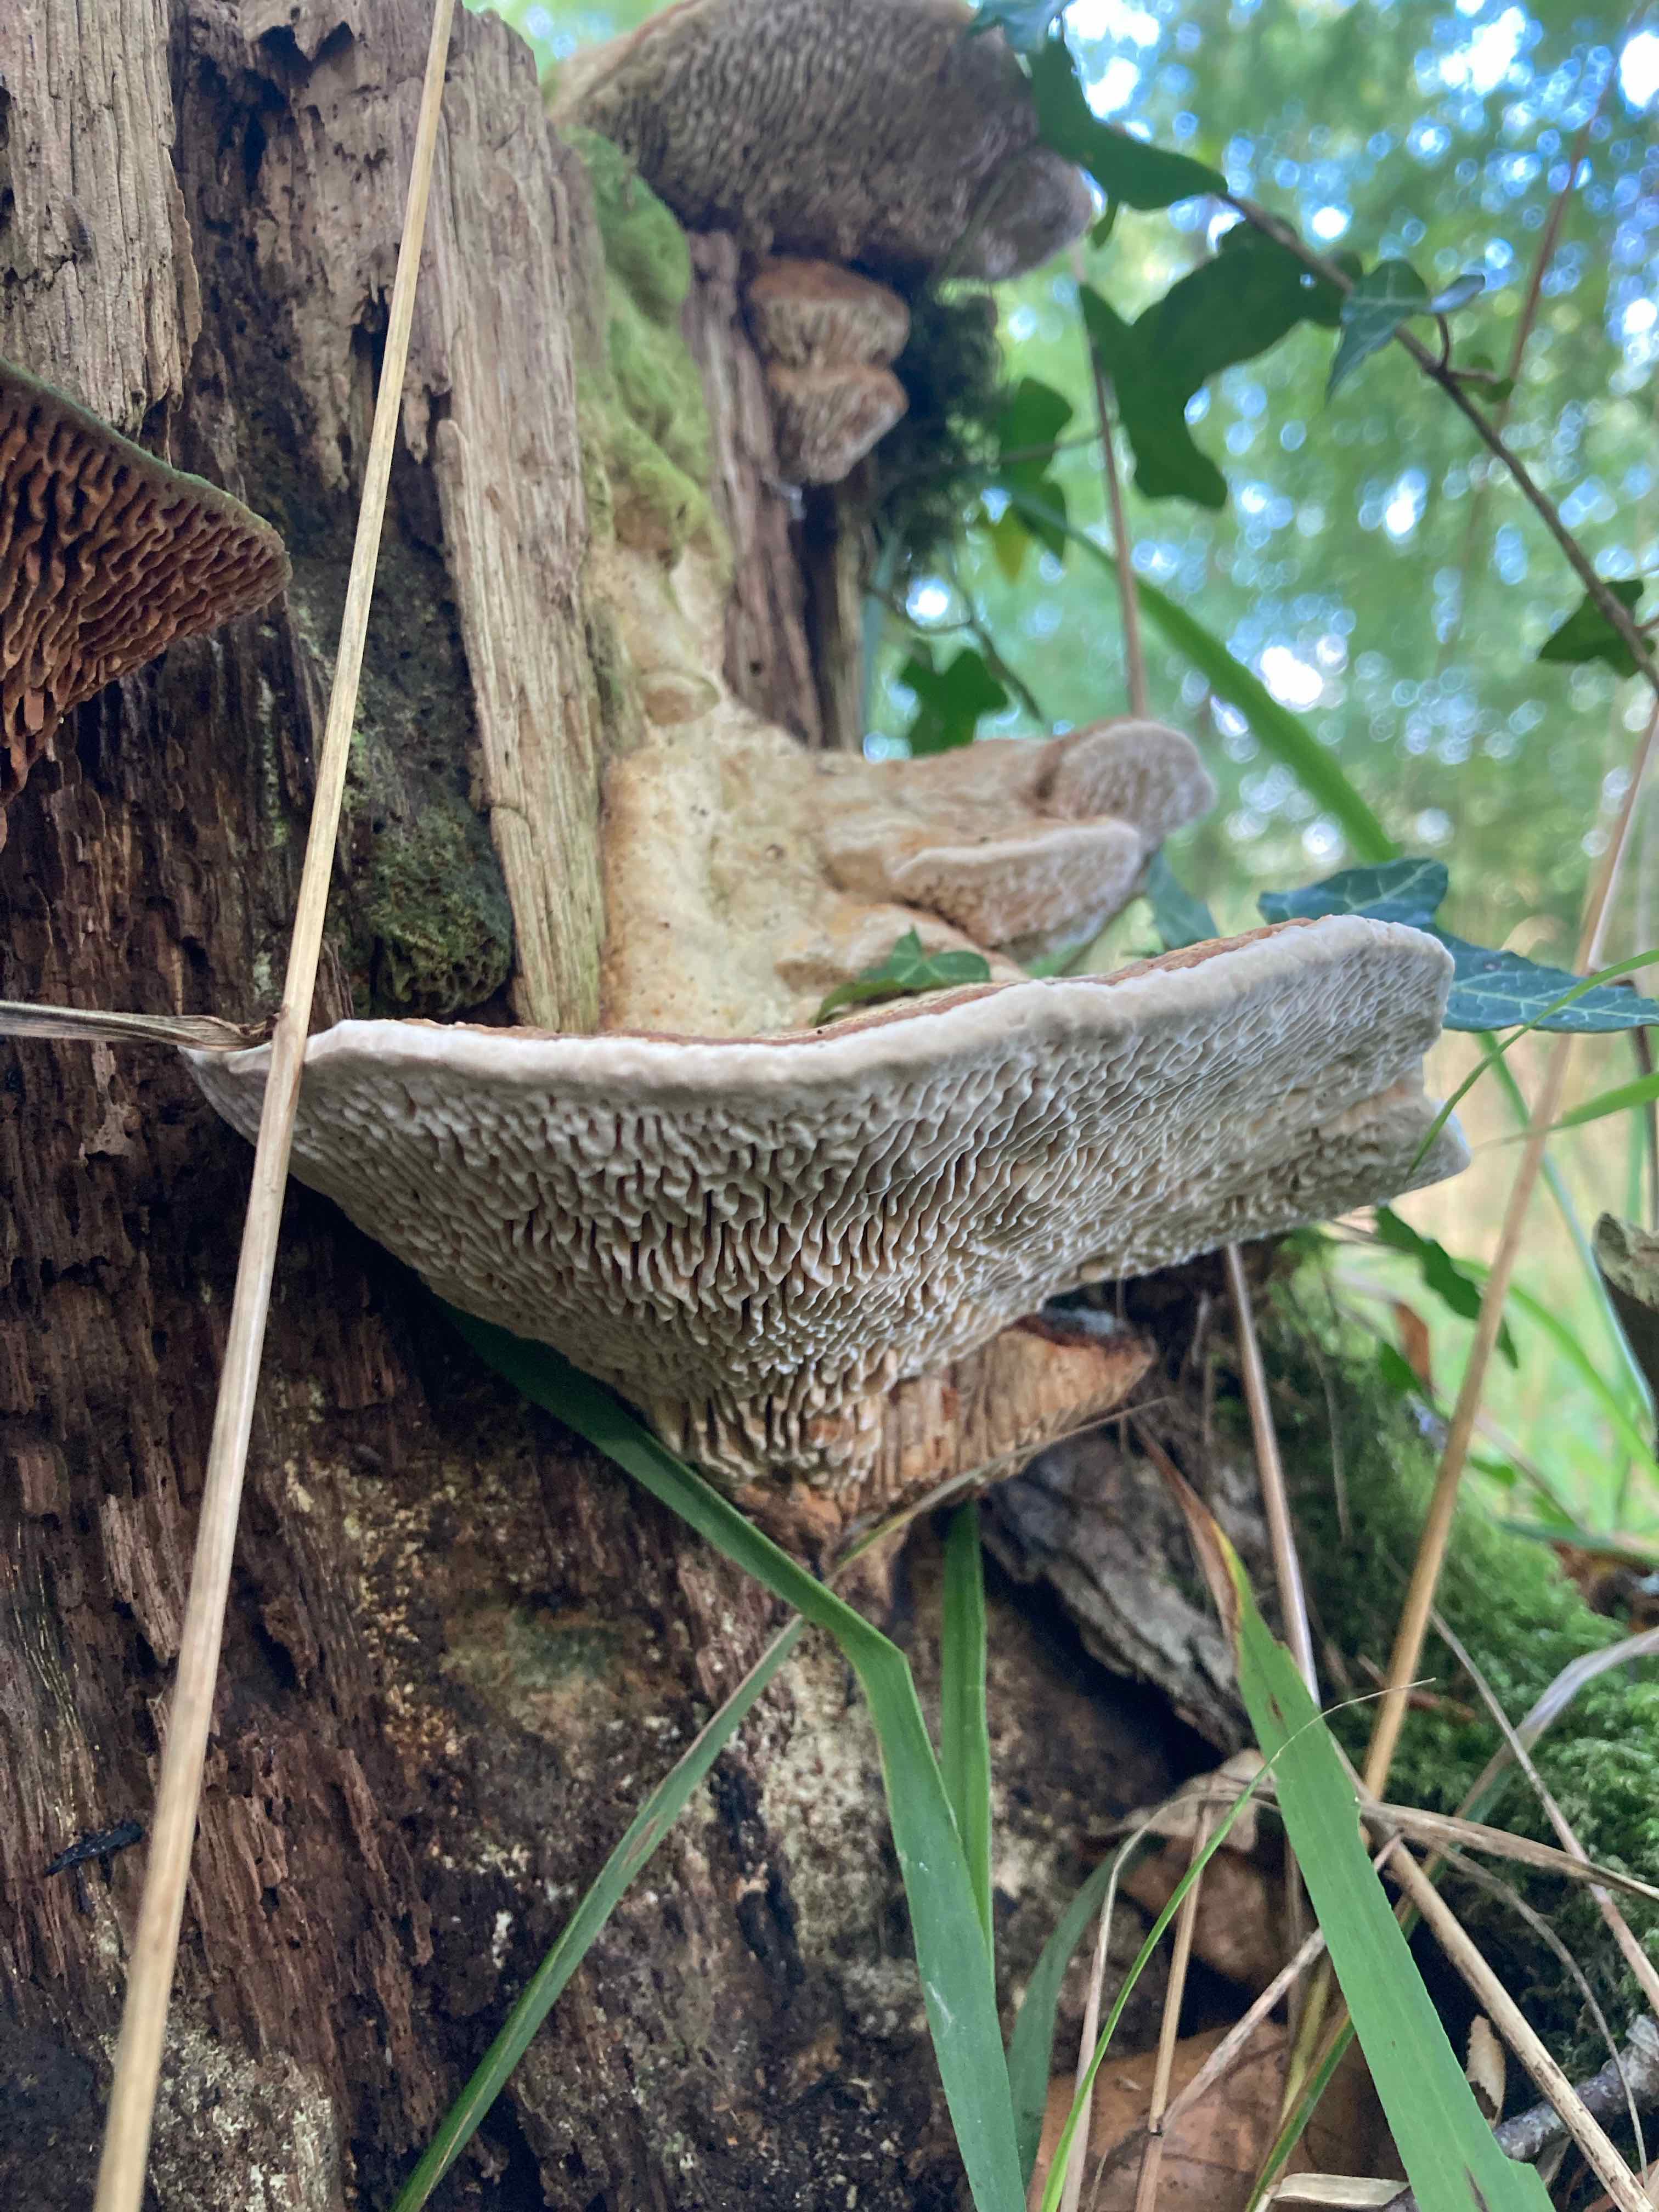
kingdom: Fungi
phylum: Basidiomycota
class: Agaricomycetes
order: Polyporales
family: Fomitopsidaceae
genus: Daedalea
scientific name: Daedalea quercina
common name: ege-labyrintsvamp
